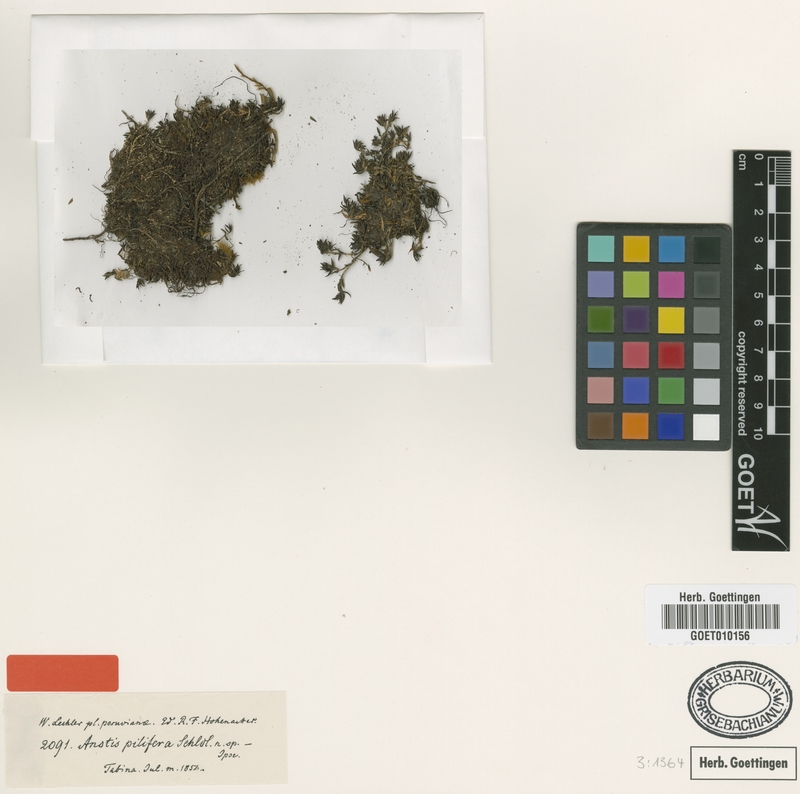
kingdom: Plantae
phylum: Tracheophyta
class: Magnoliopsida
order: Gentianales
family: Rubiaceae
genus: Arcytophyllum
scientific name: Arcytophyllum filiforme
